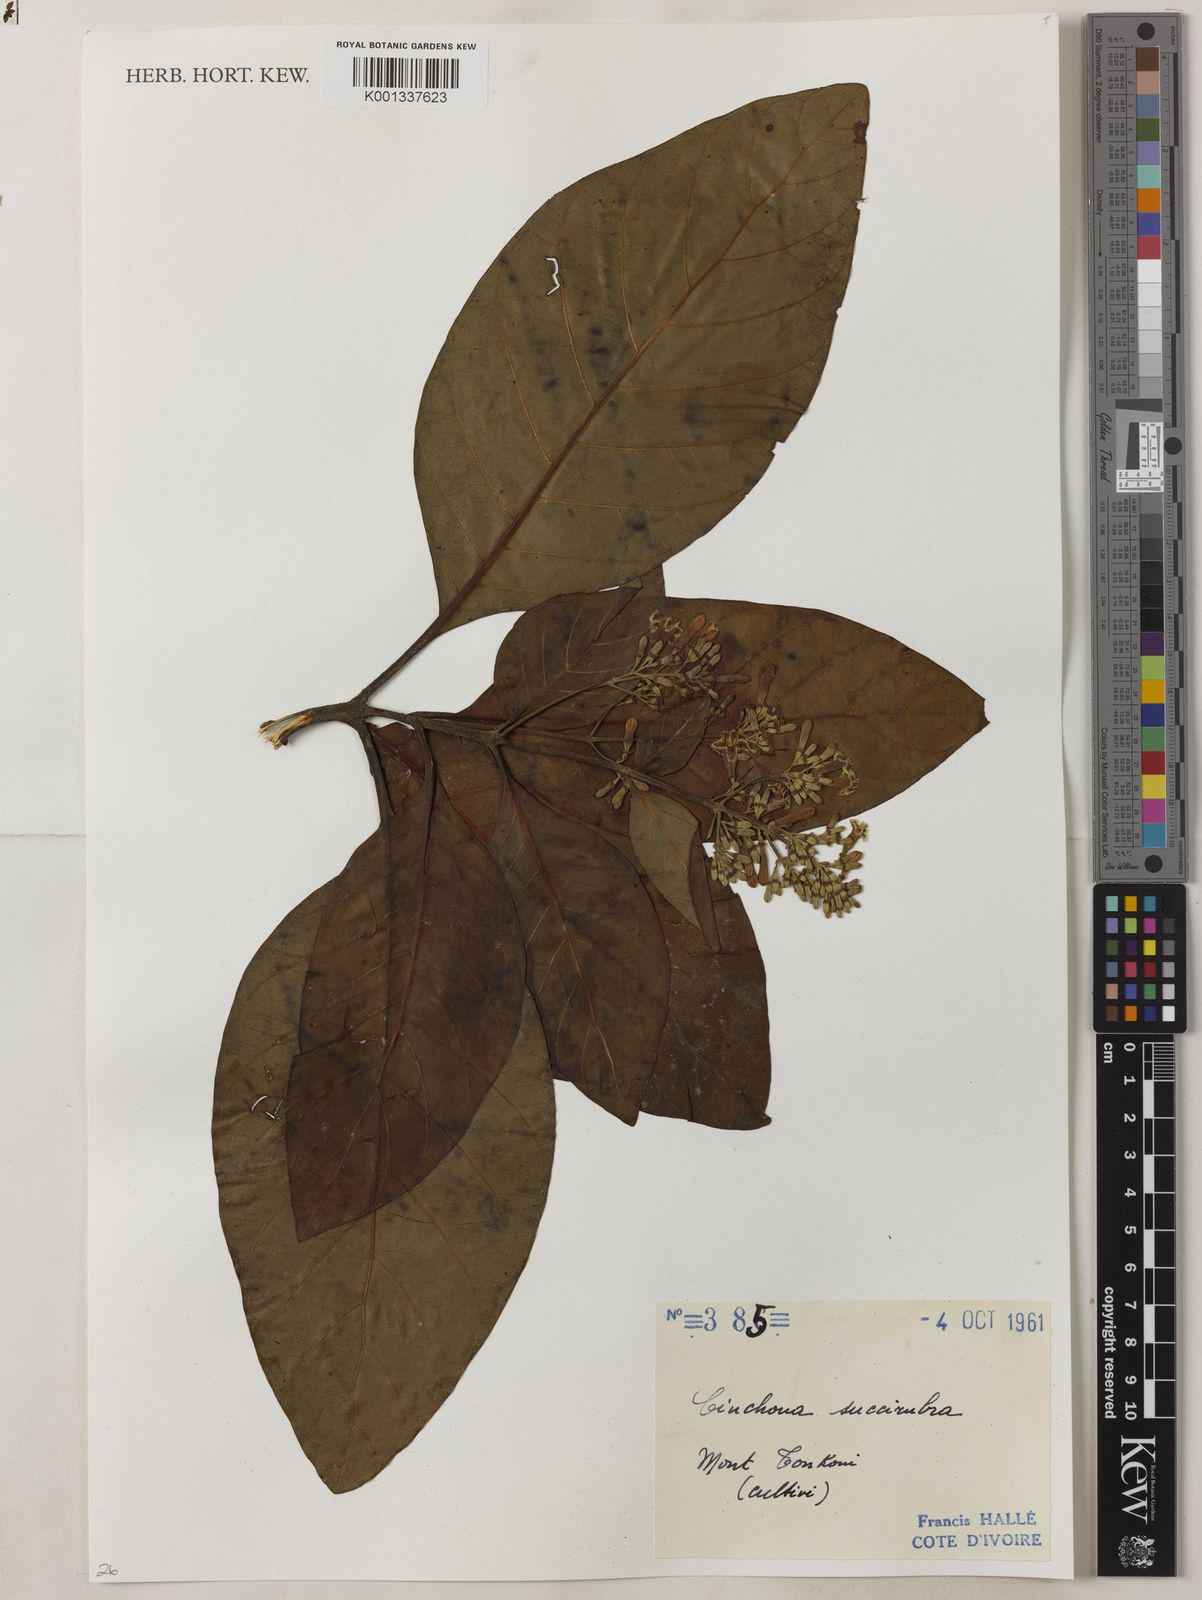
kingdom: Plantae
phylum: Tracheophyta
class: Magnoliopsida
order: Gentianales
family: Rubiaceae
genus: Cinchona
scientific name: Cinchona pubescens
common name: Quinine
